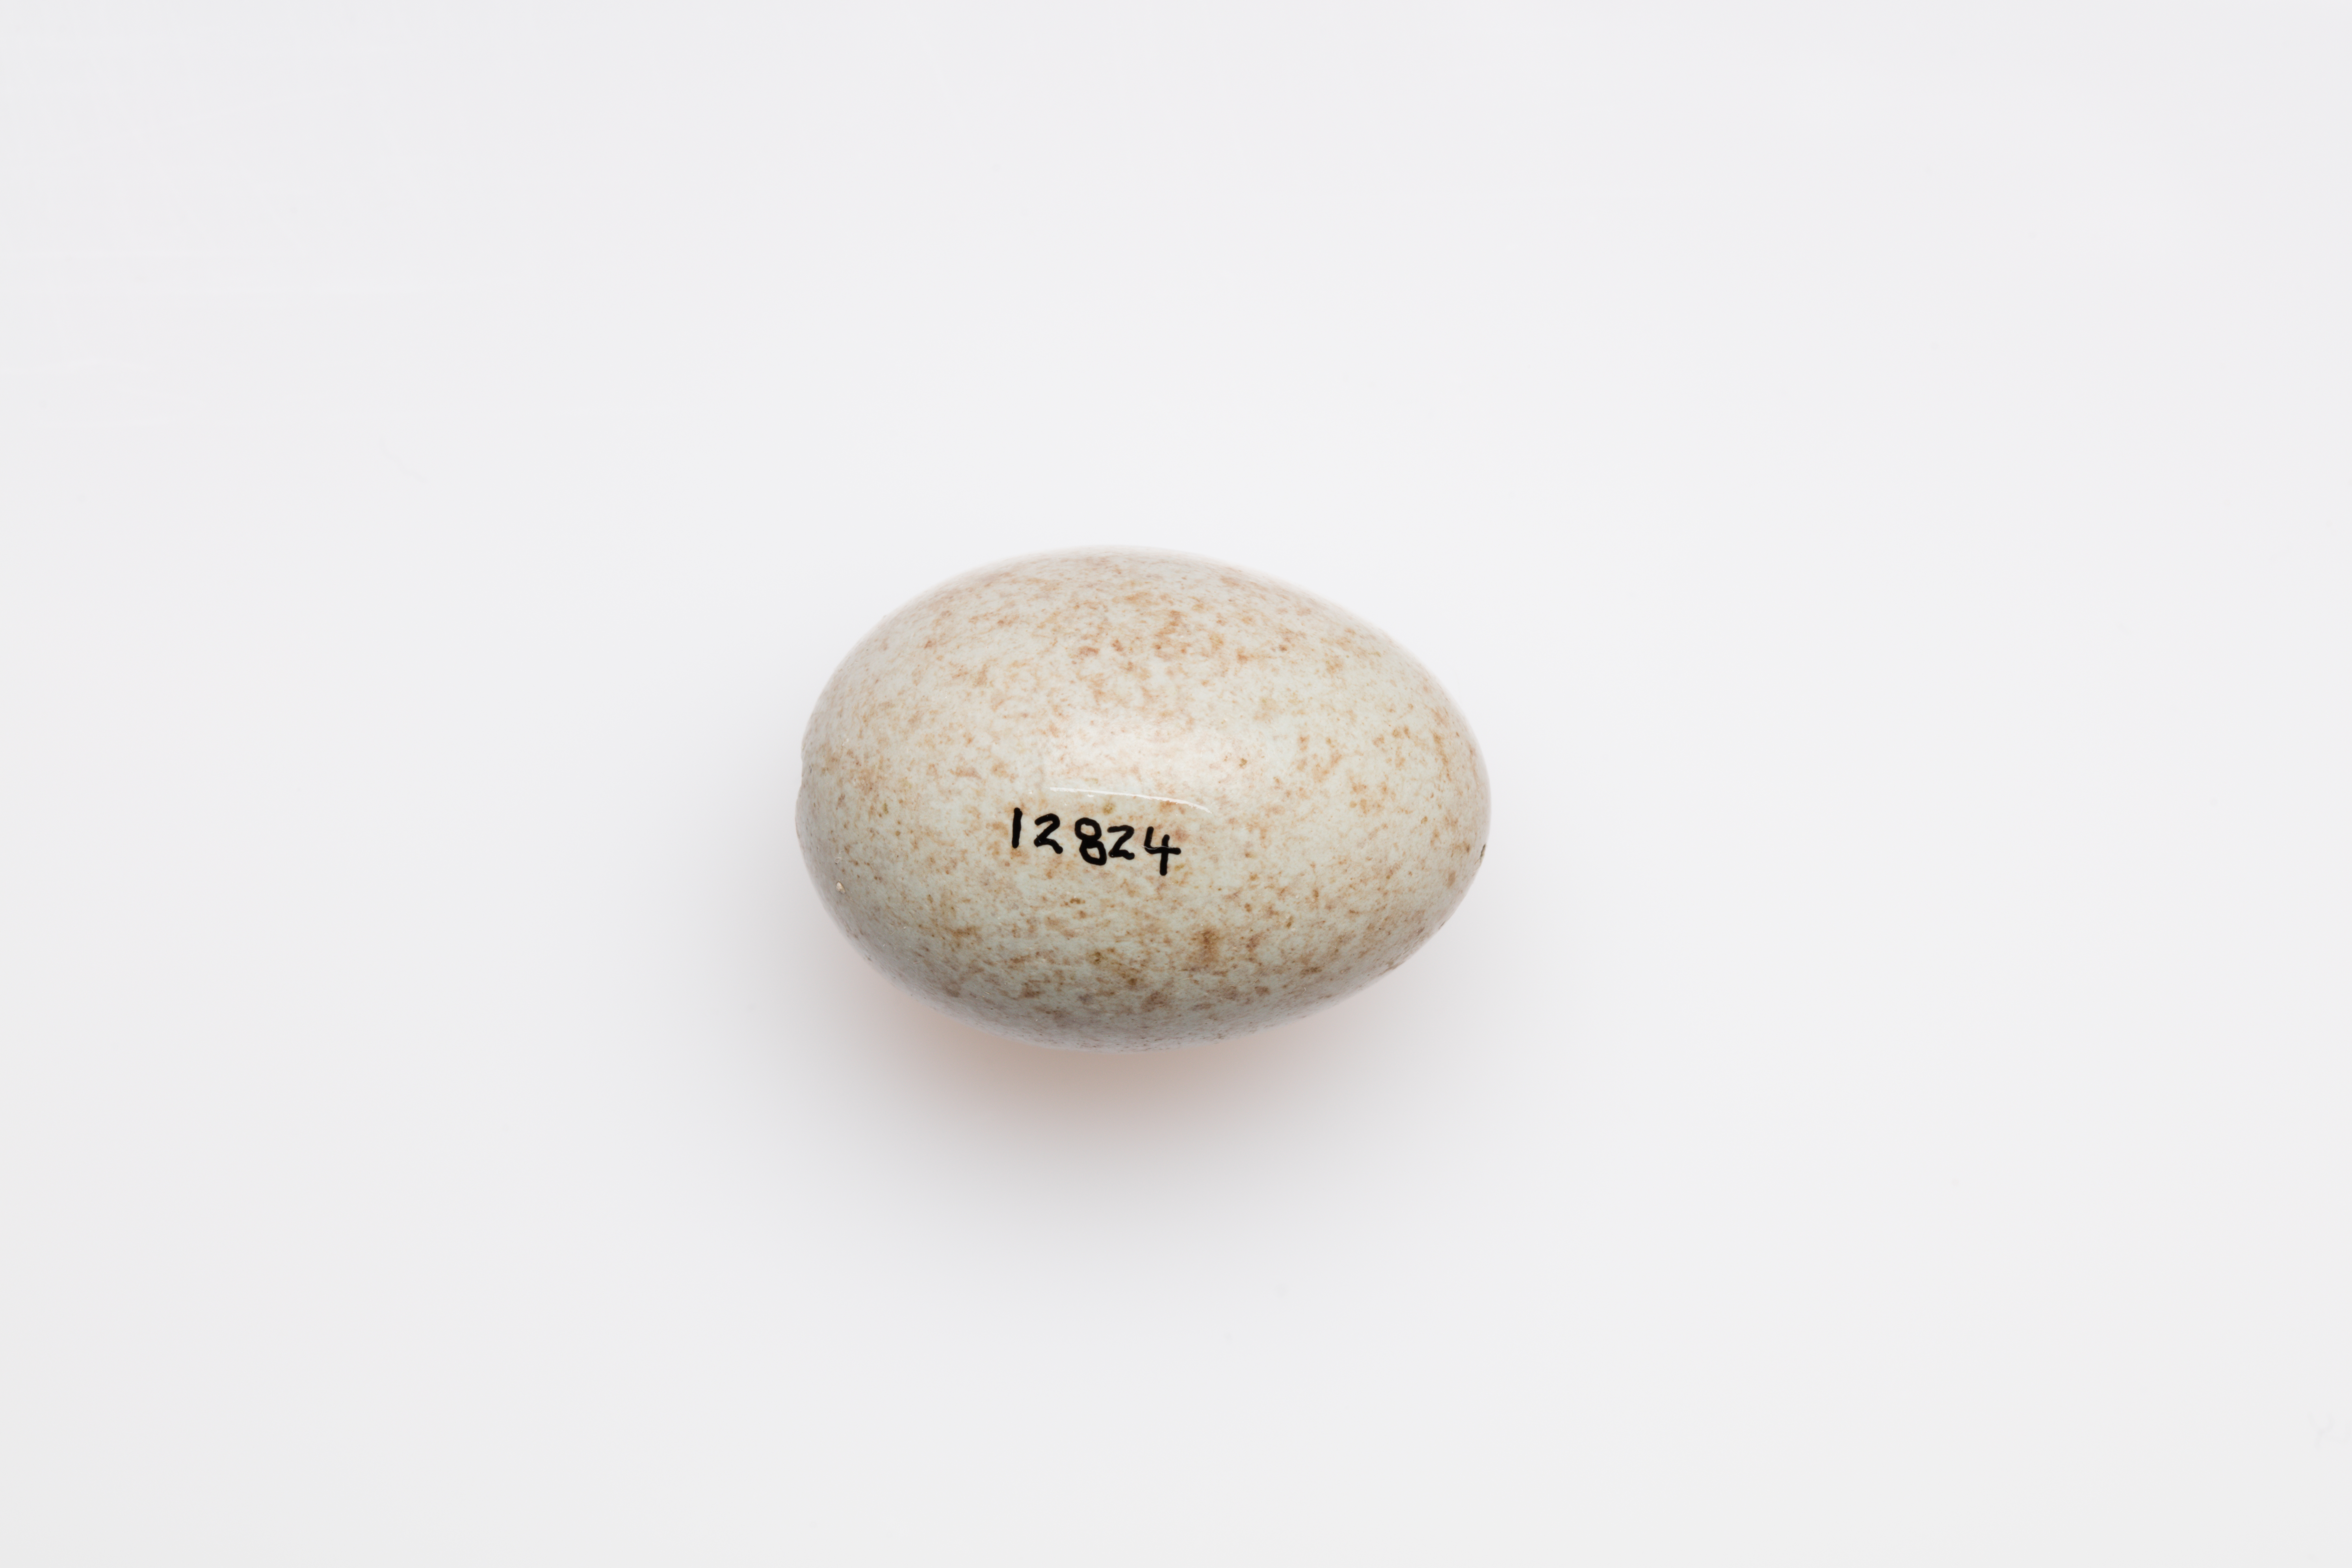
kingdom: Animalia
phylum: Chordata
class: Aves
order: Passeriformes
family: Turdidae
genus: Turdus
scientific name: Turdus merula
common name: Common blackbird
